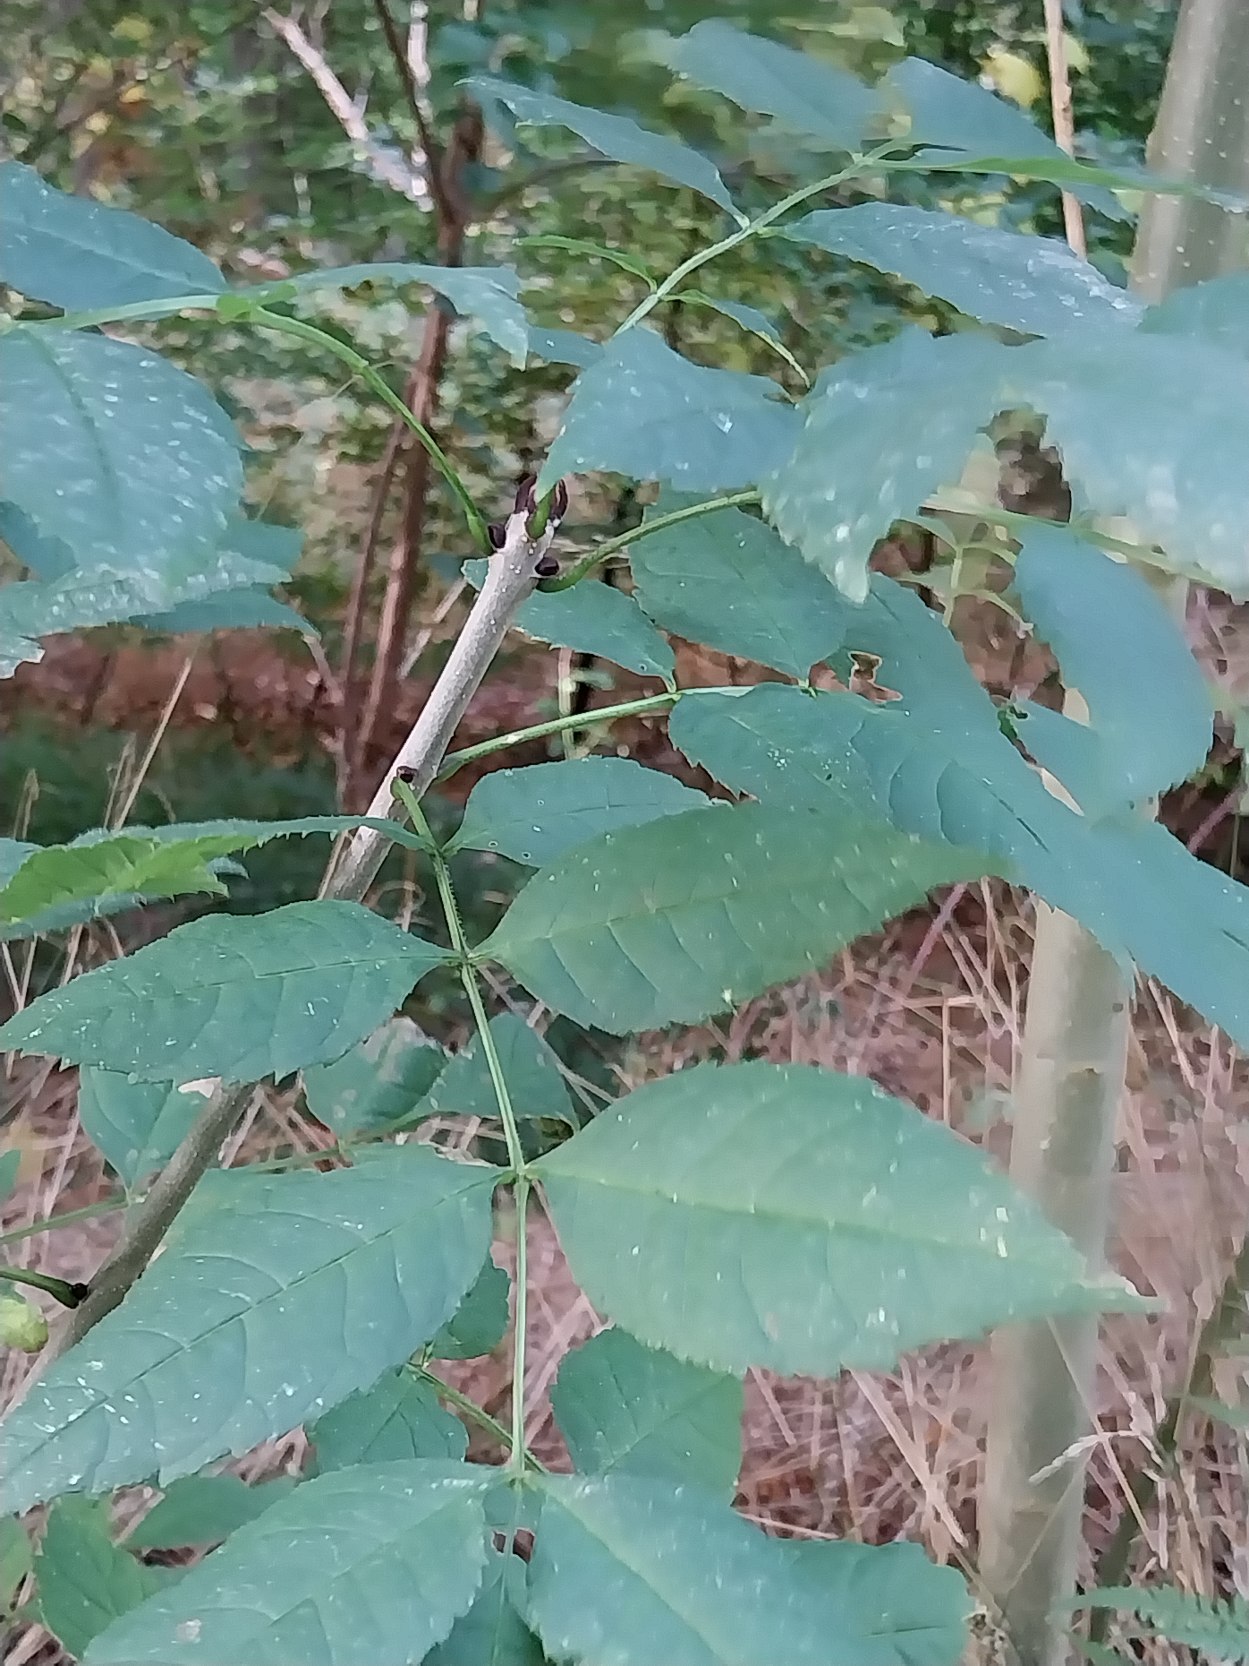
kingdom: Plantae
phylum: Tracheophyta
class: Magnoliopsida
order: Lamiales
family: Oleaceae
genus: Fraxinus
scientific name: Fraxinus excelsior
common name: Ask
